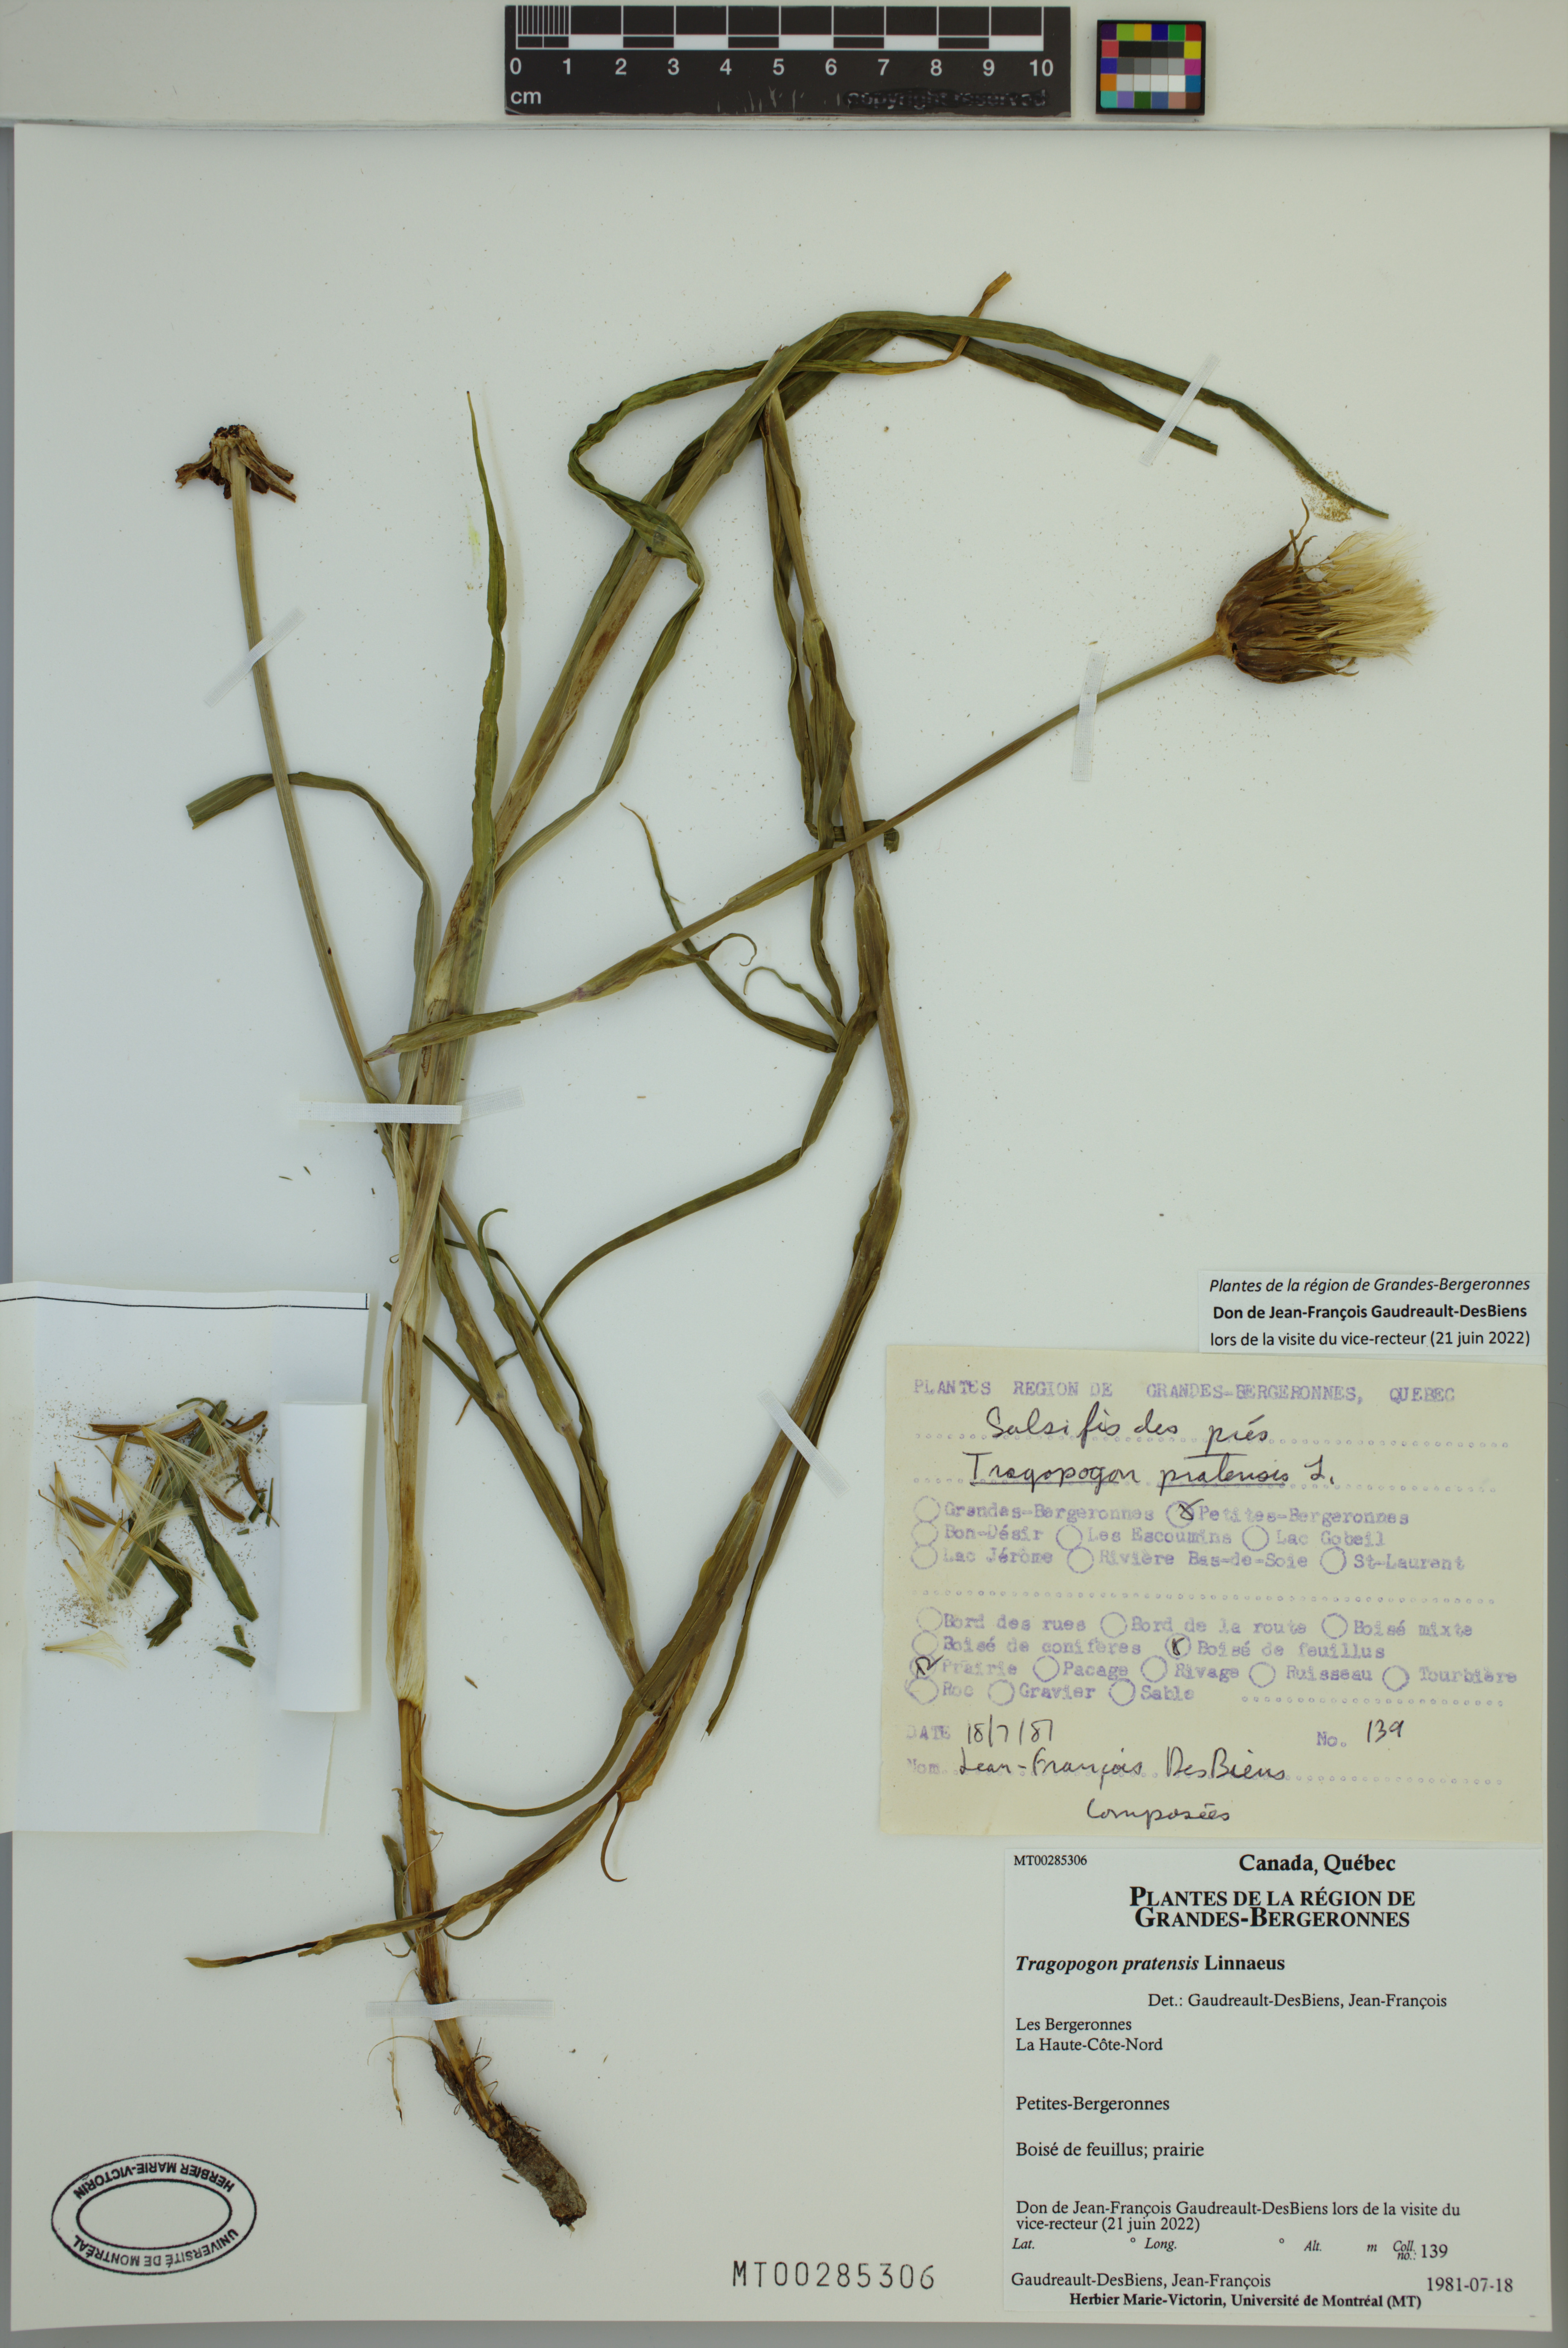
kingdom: Plantae
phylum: Tracheophyta
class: Magnoliopsida
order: Asterales
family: Asteraceae
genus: Tragopogon
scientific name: Tragopogon pratensis
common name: Goat's-beard
